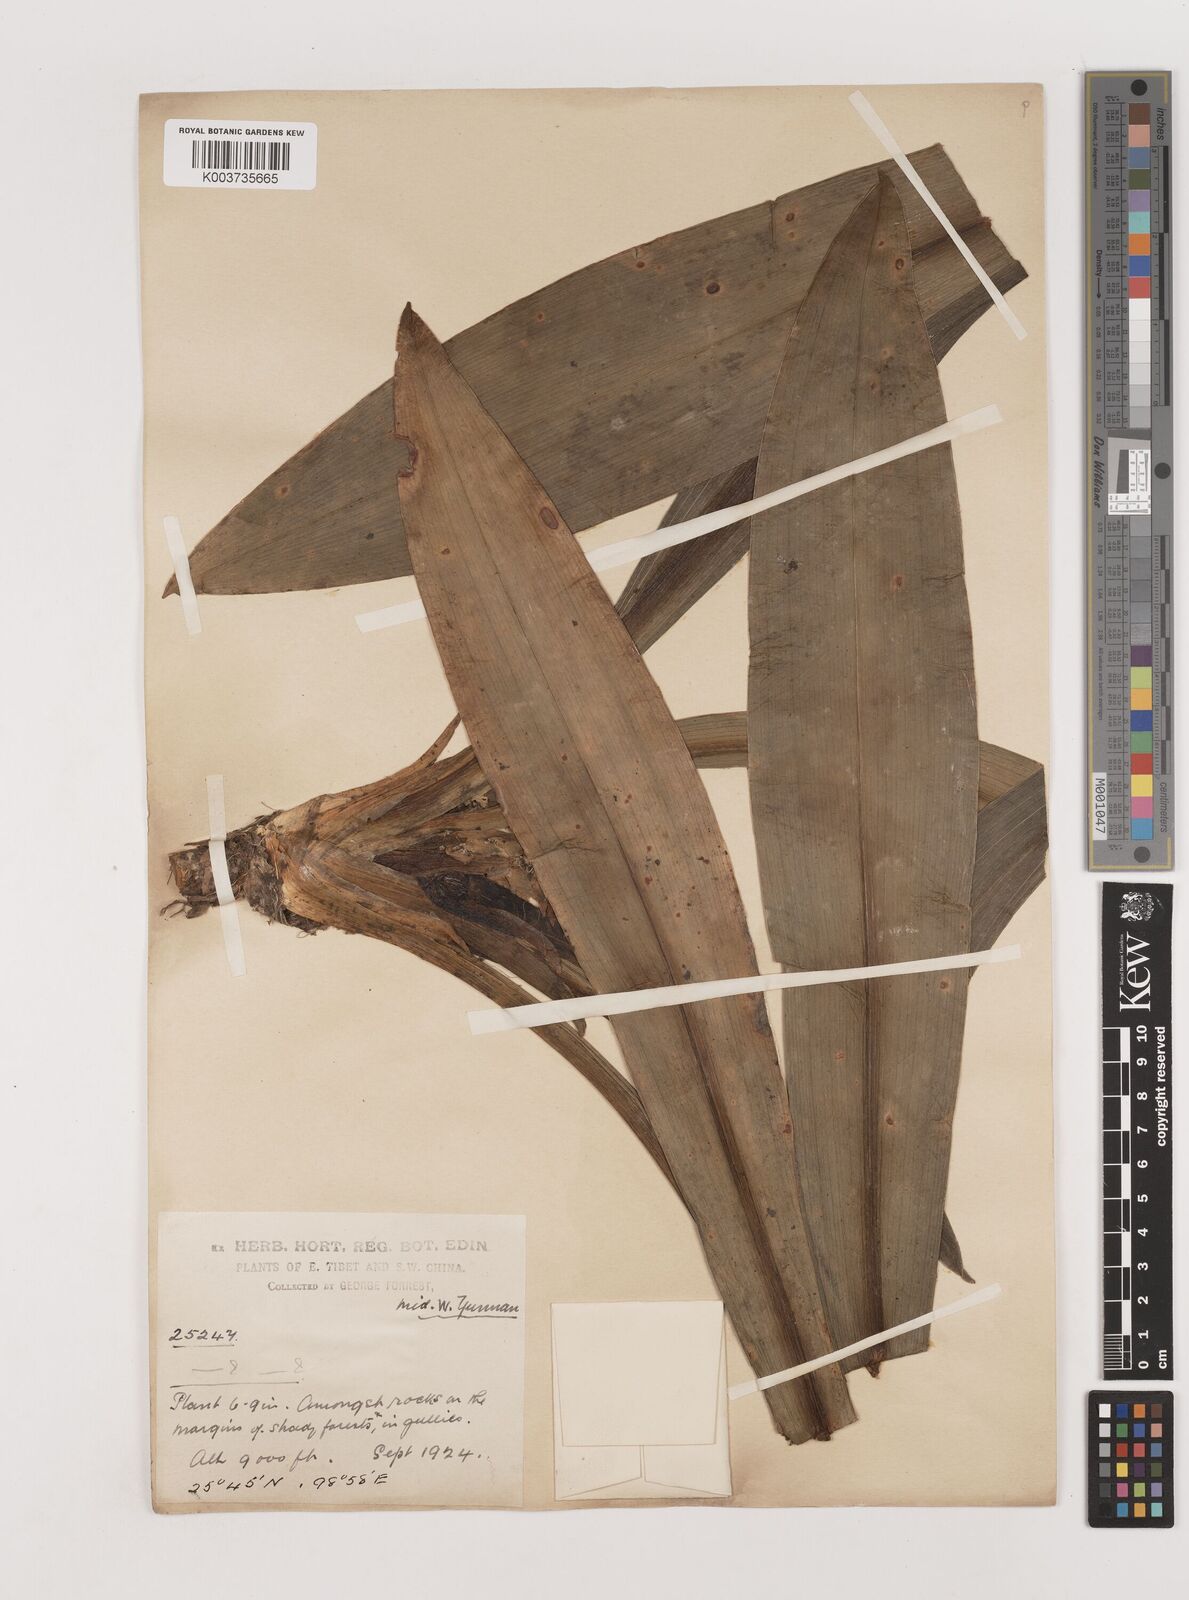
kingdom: Plantae
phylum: Tracheophyta
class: Liliopsida
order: Asparagales
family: Asparagaceae
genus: Rohdea
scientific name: Rohdea nepalensis
